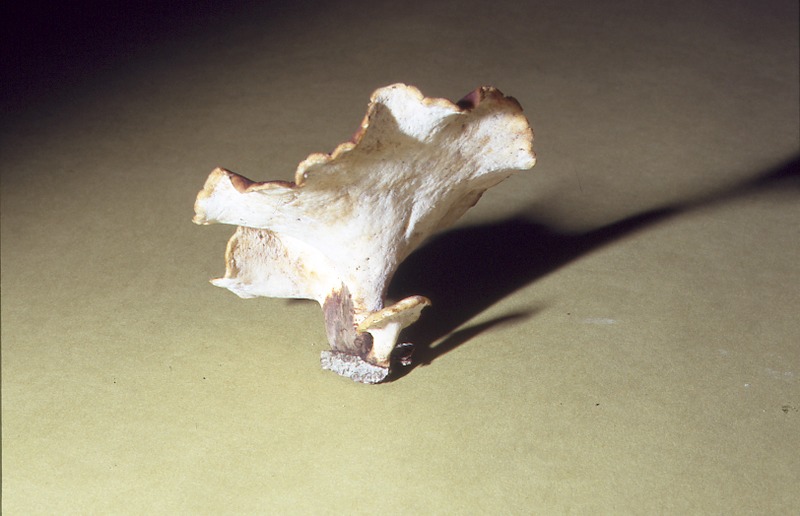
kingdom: Fungi
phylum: Basidiomycota
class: Agaricomycetes
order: Polyporales
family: Polyporaceae
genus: Picipes
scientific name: Picipes badius
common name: Bay polypore
